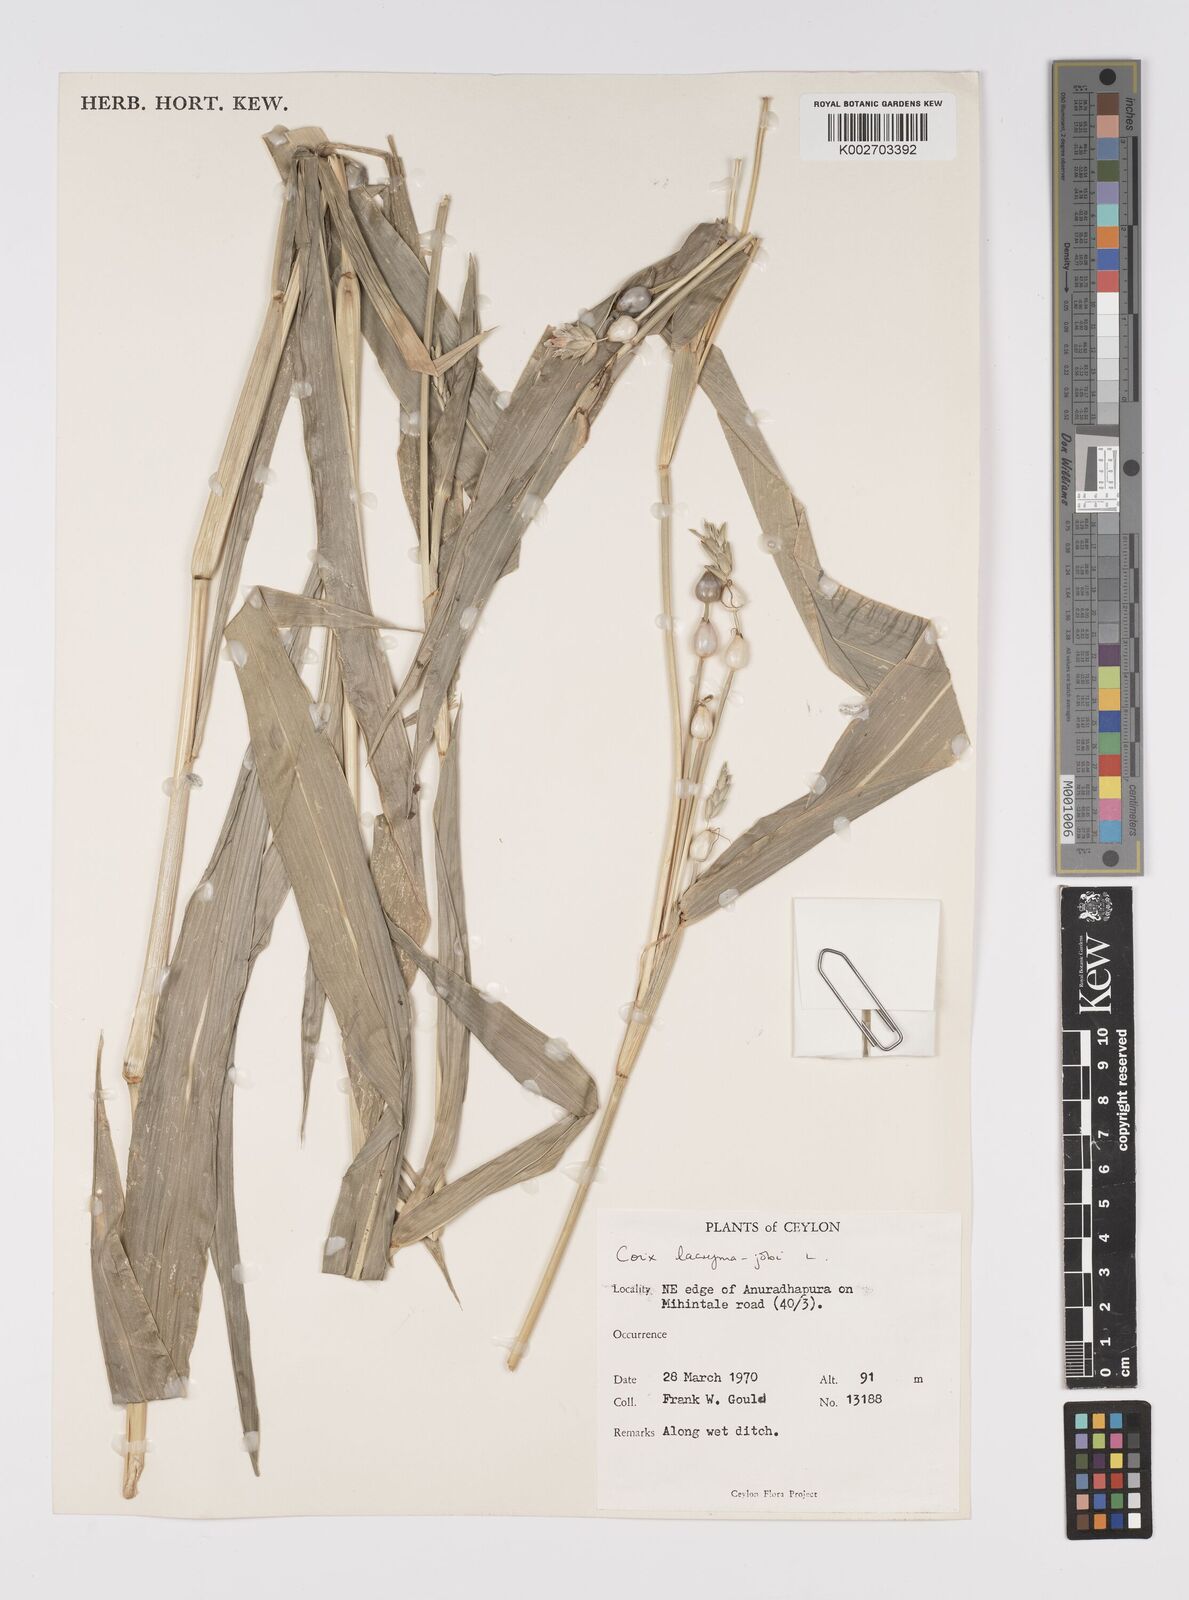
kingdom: Plantae
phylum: Tracheophyta
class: Liliopsida
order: Poales
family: Poaceae
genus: Coix
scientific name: Coix lacryma-jobi
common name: Job's tears
